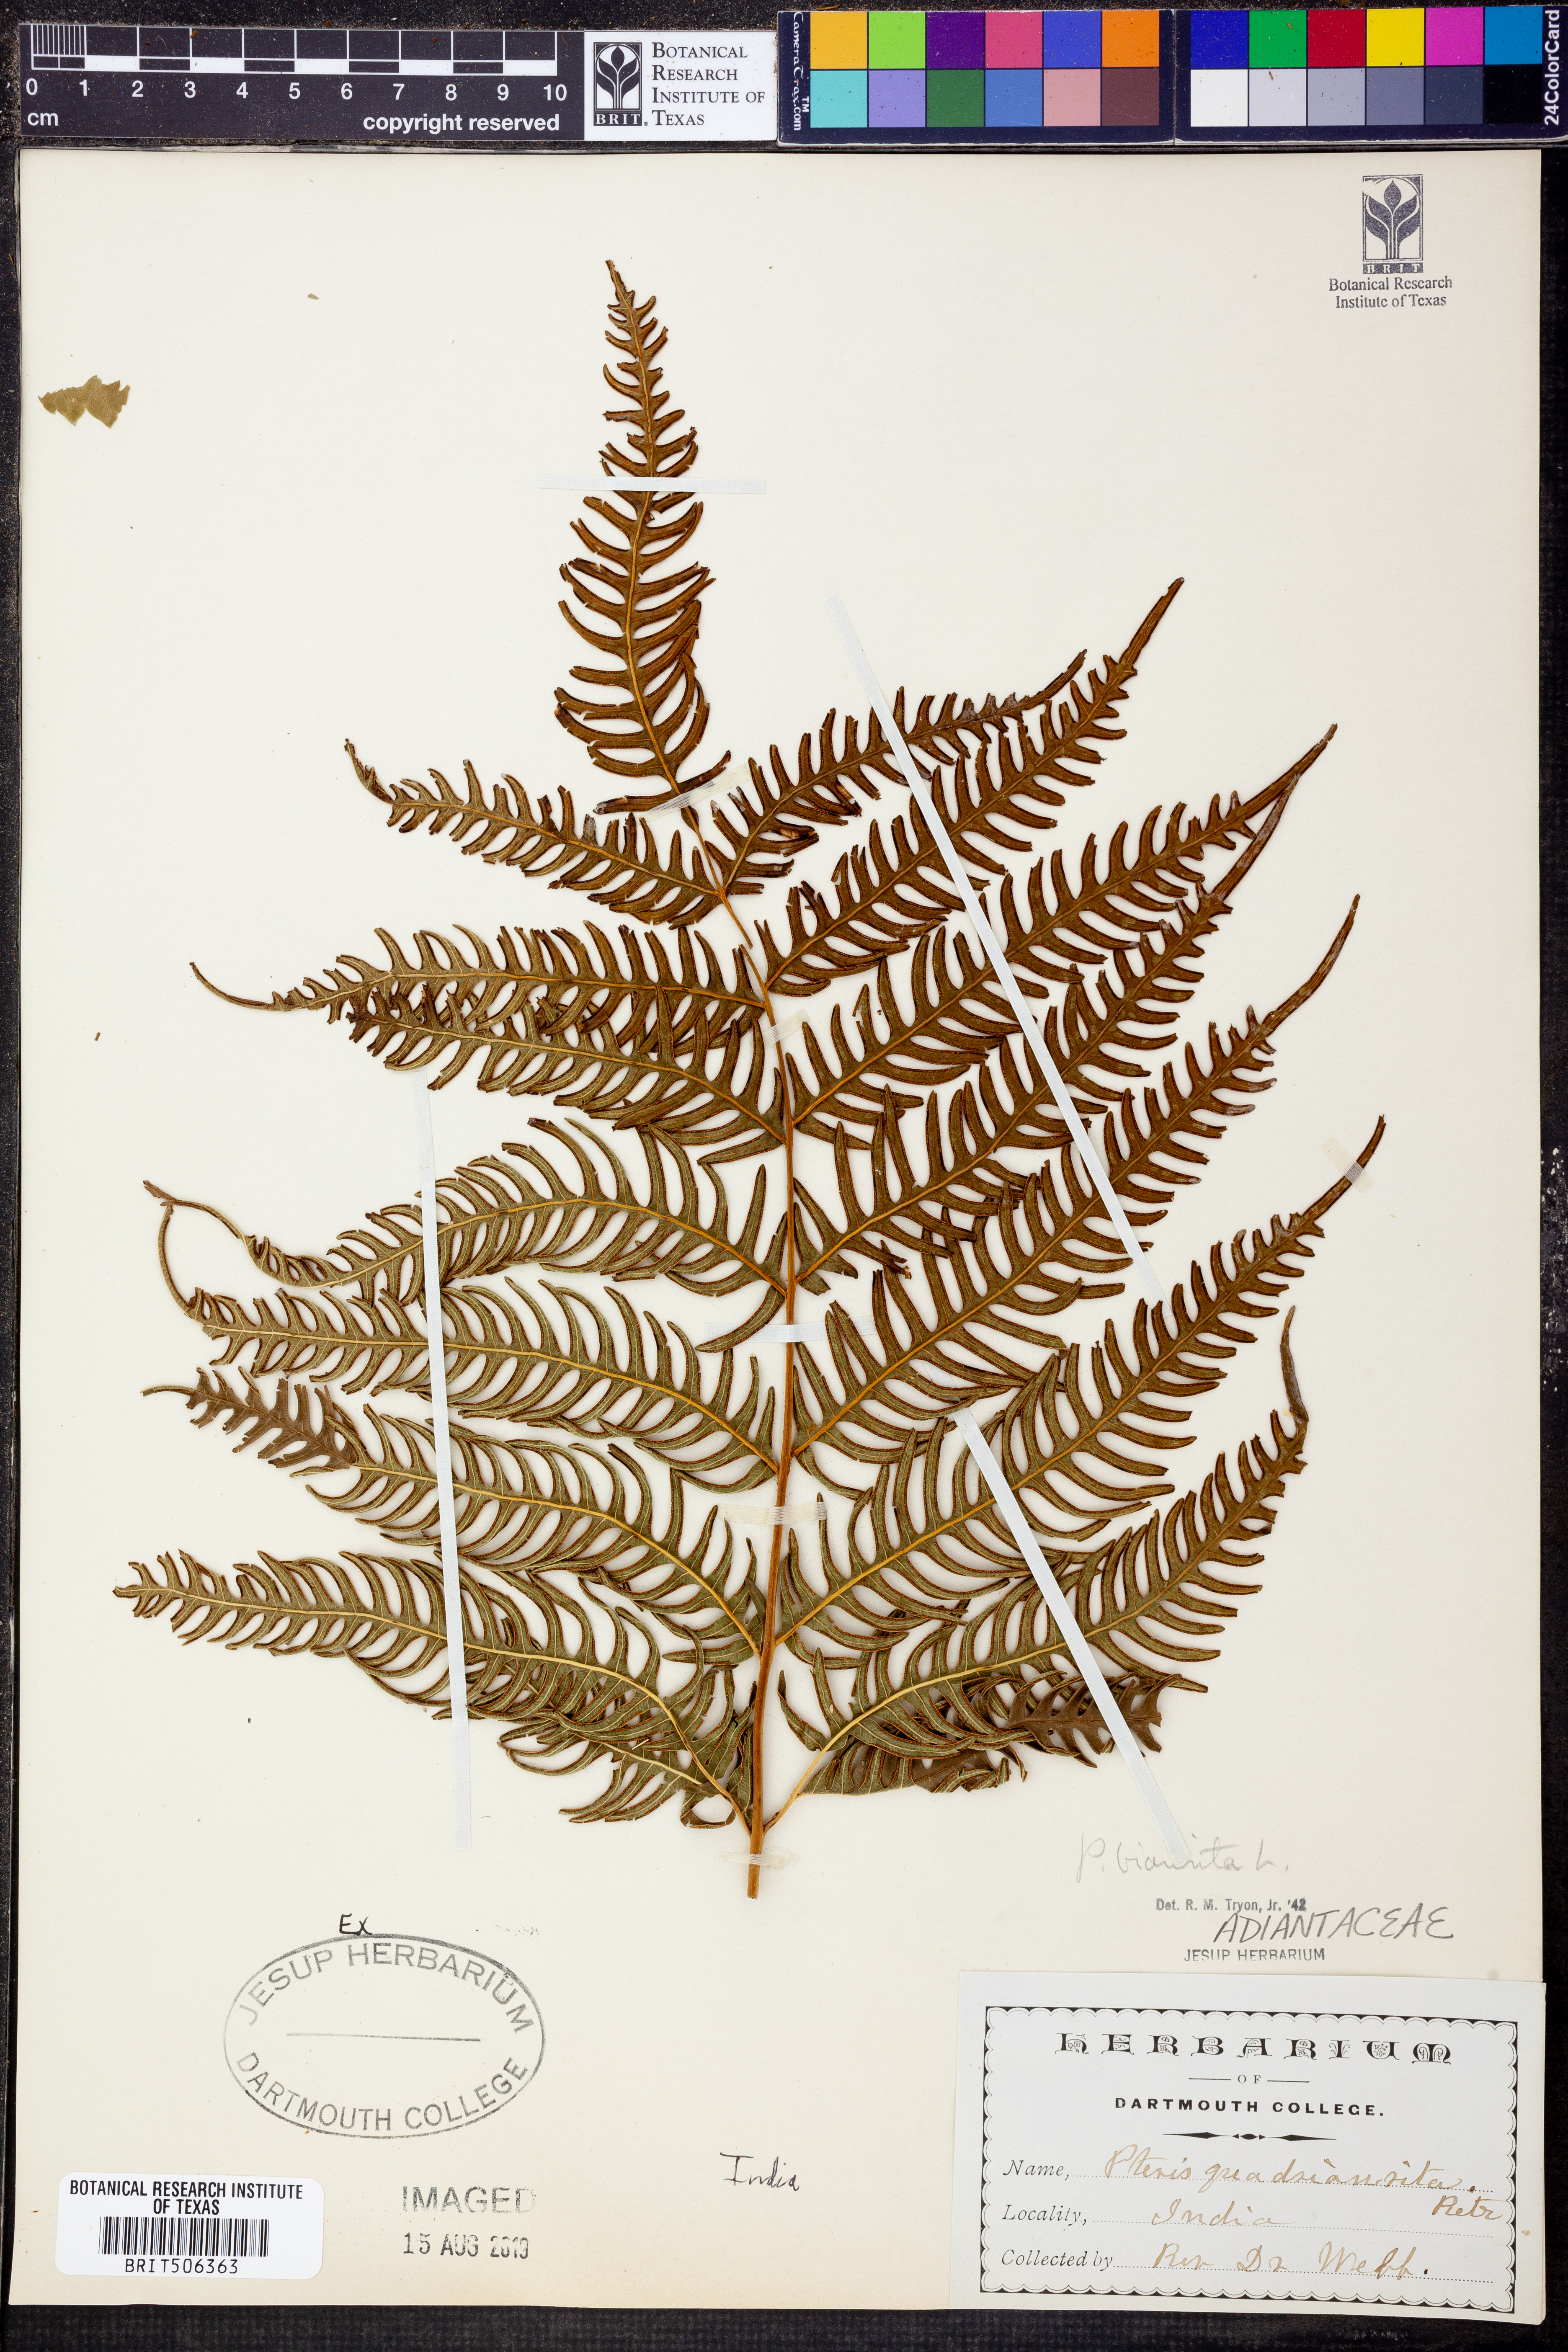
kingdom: Plantae
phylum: Tracheophyta
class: Polypodiopsida
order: Polypodiales
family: Pteridaceae
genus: Pteris
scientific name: Pteris biaurita
